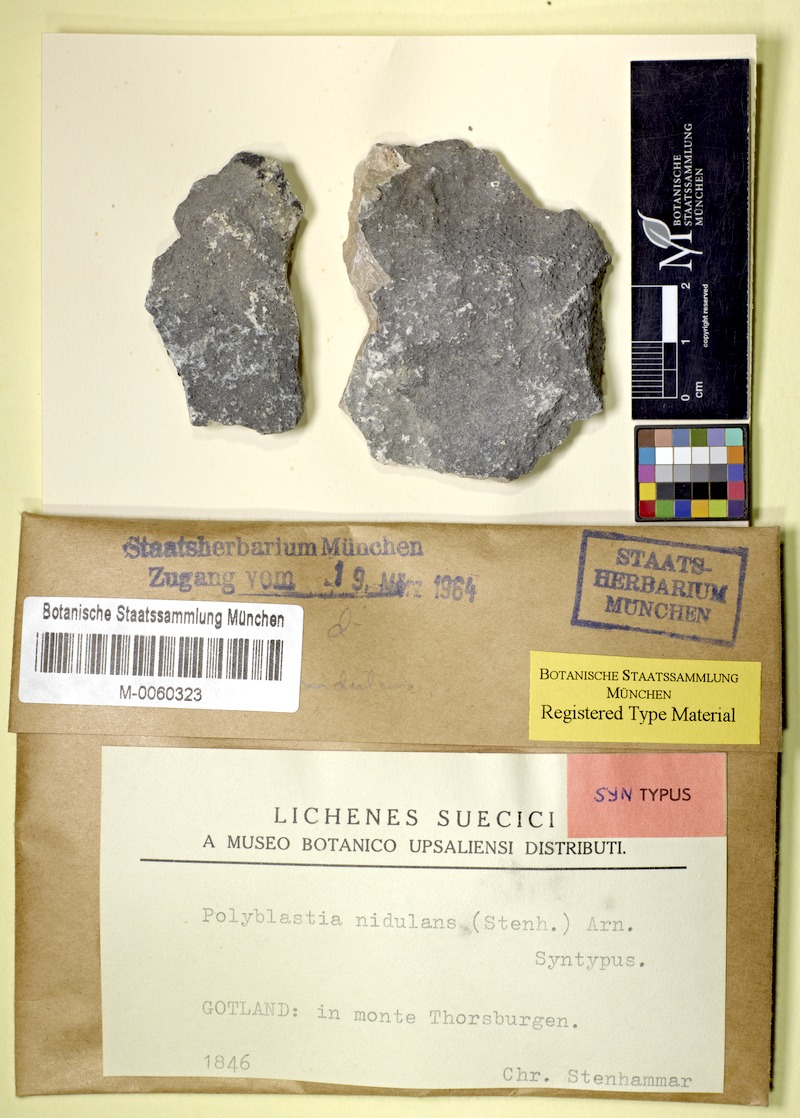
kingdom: Fungi
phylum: Ascomycota
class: Eurotiomycetes
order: Verrucariales
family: Verrucariaceae
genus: Polyblastia
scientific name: Polyblastia nidulans
